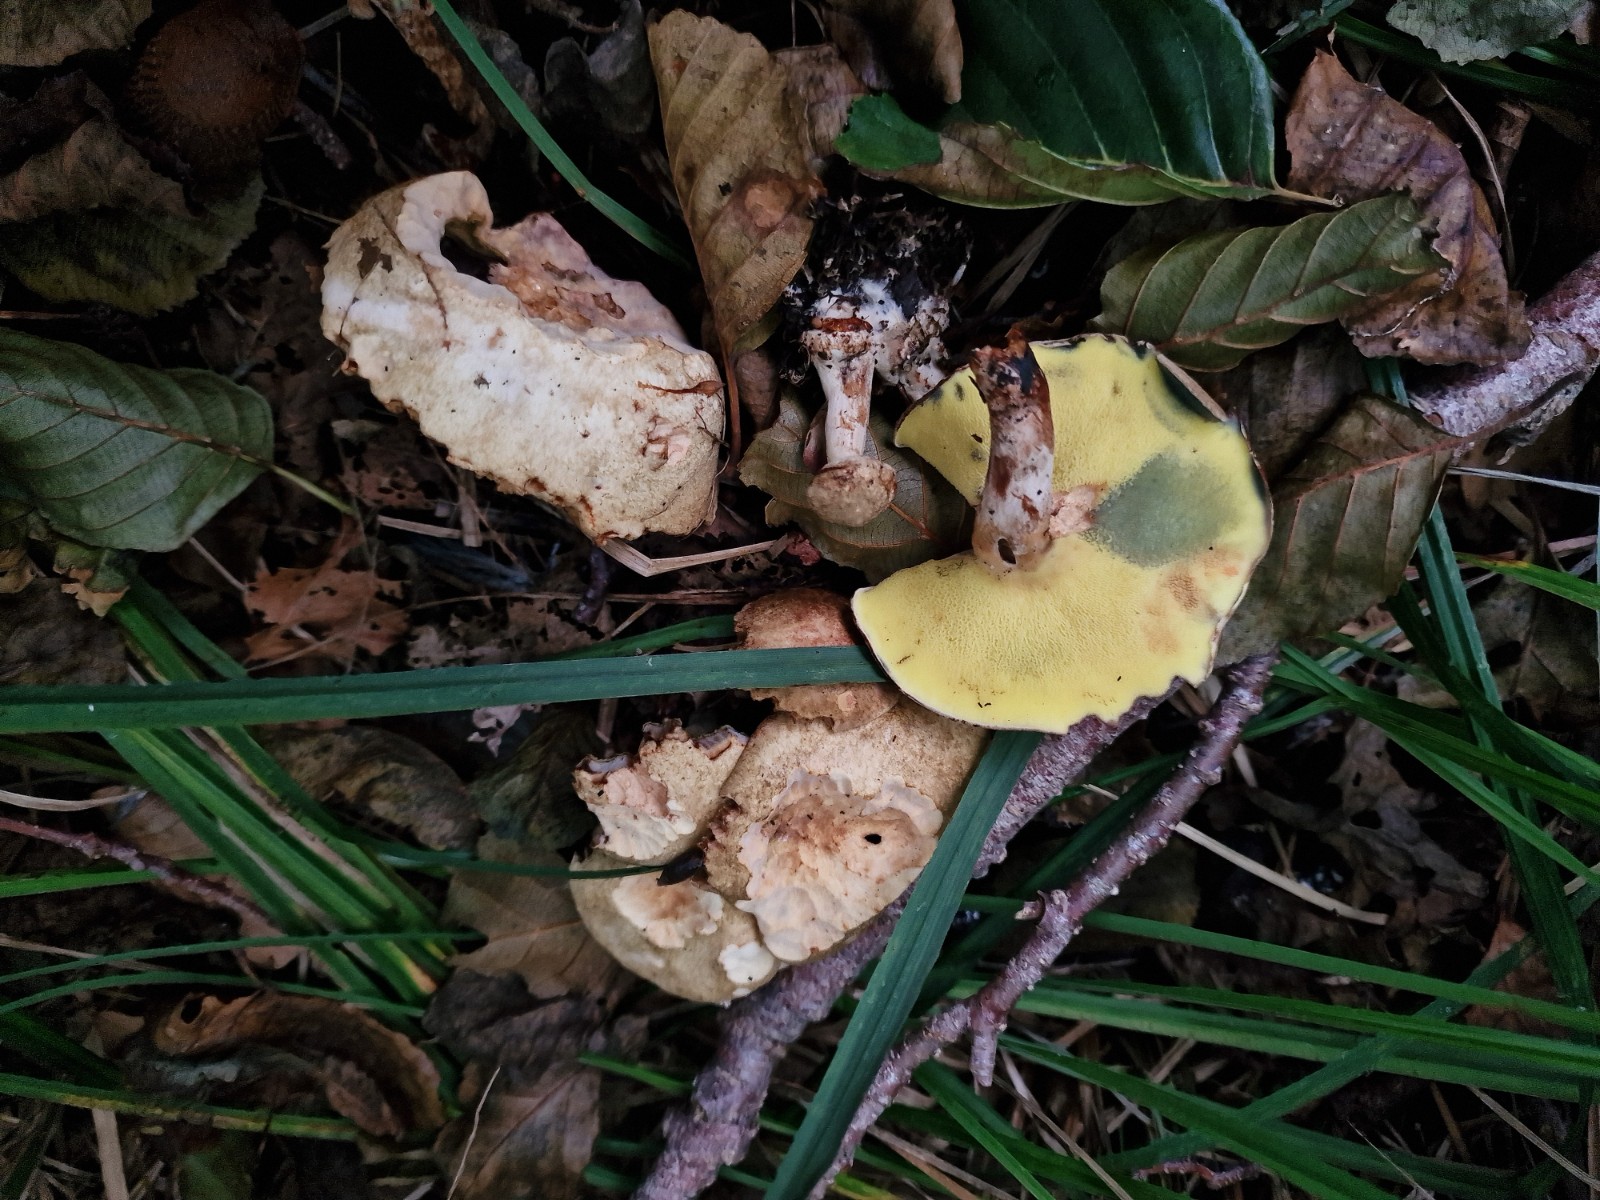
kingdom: Fungi
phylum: Basidiomycota
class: Agaricomycetes
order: Boletales
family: Paxillaceae
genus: Gyrodon
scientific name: Gyrodon lividus
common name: ellerørhat
